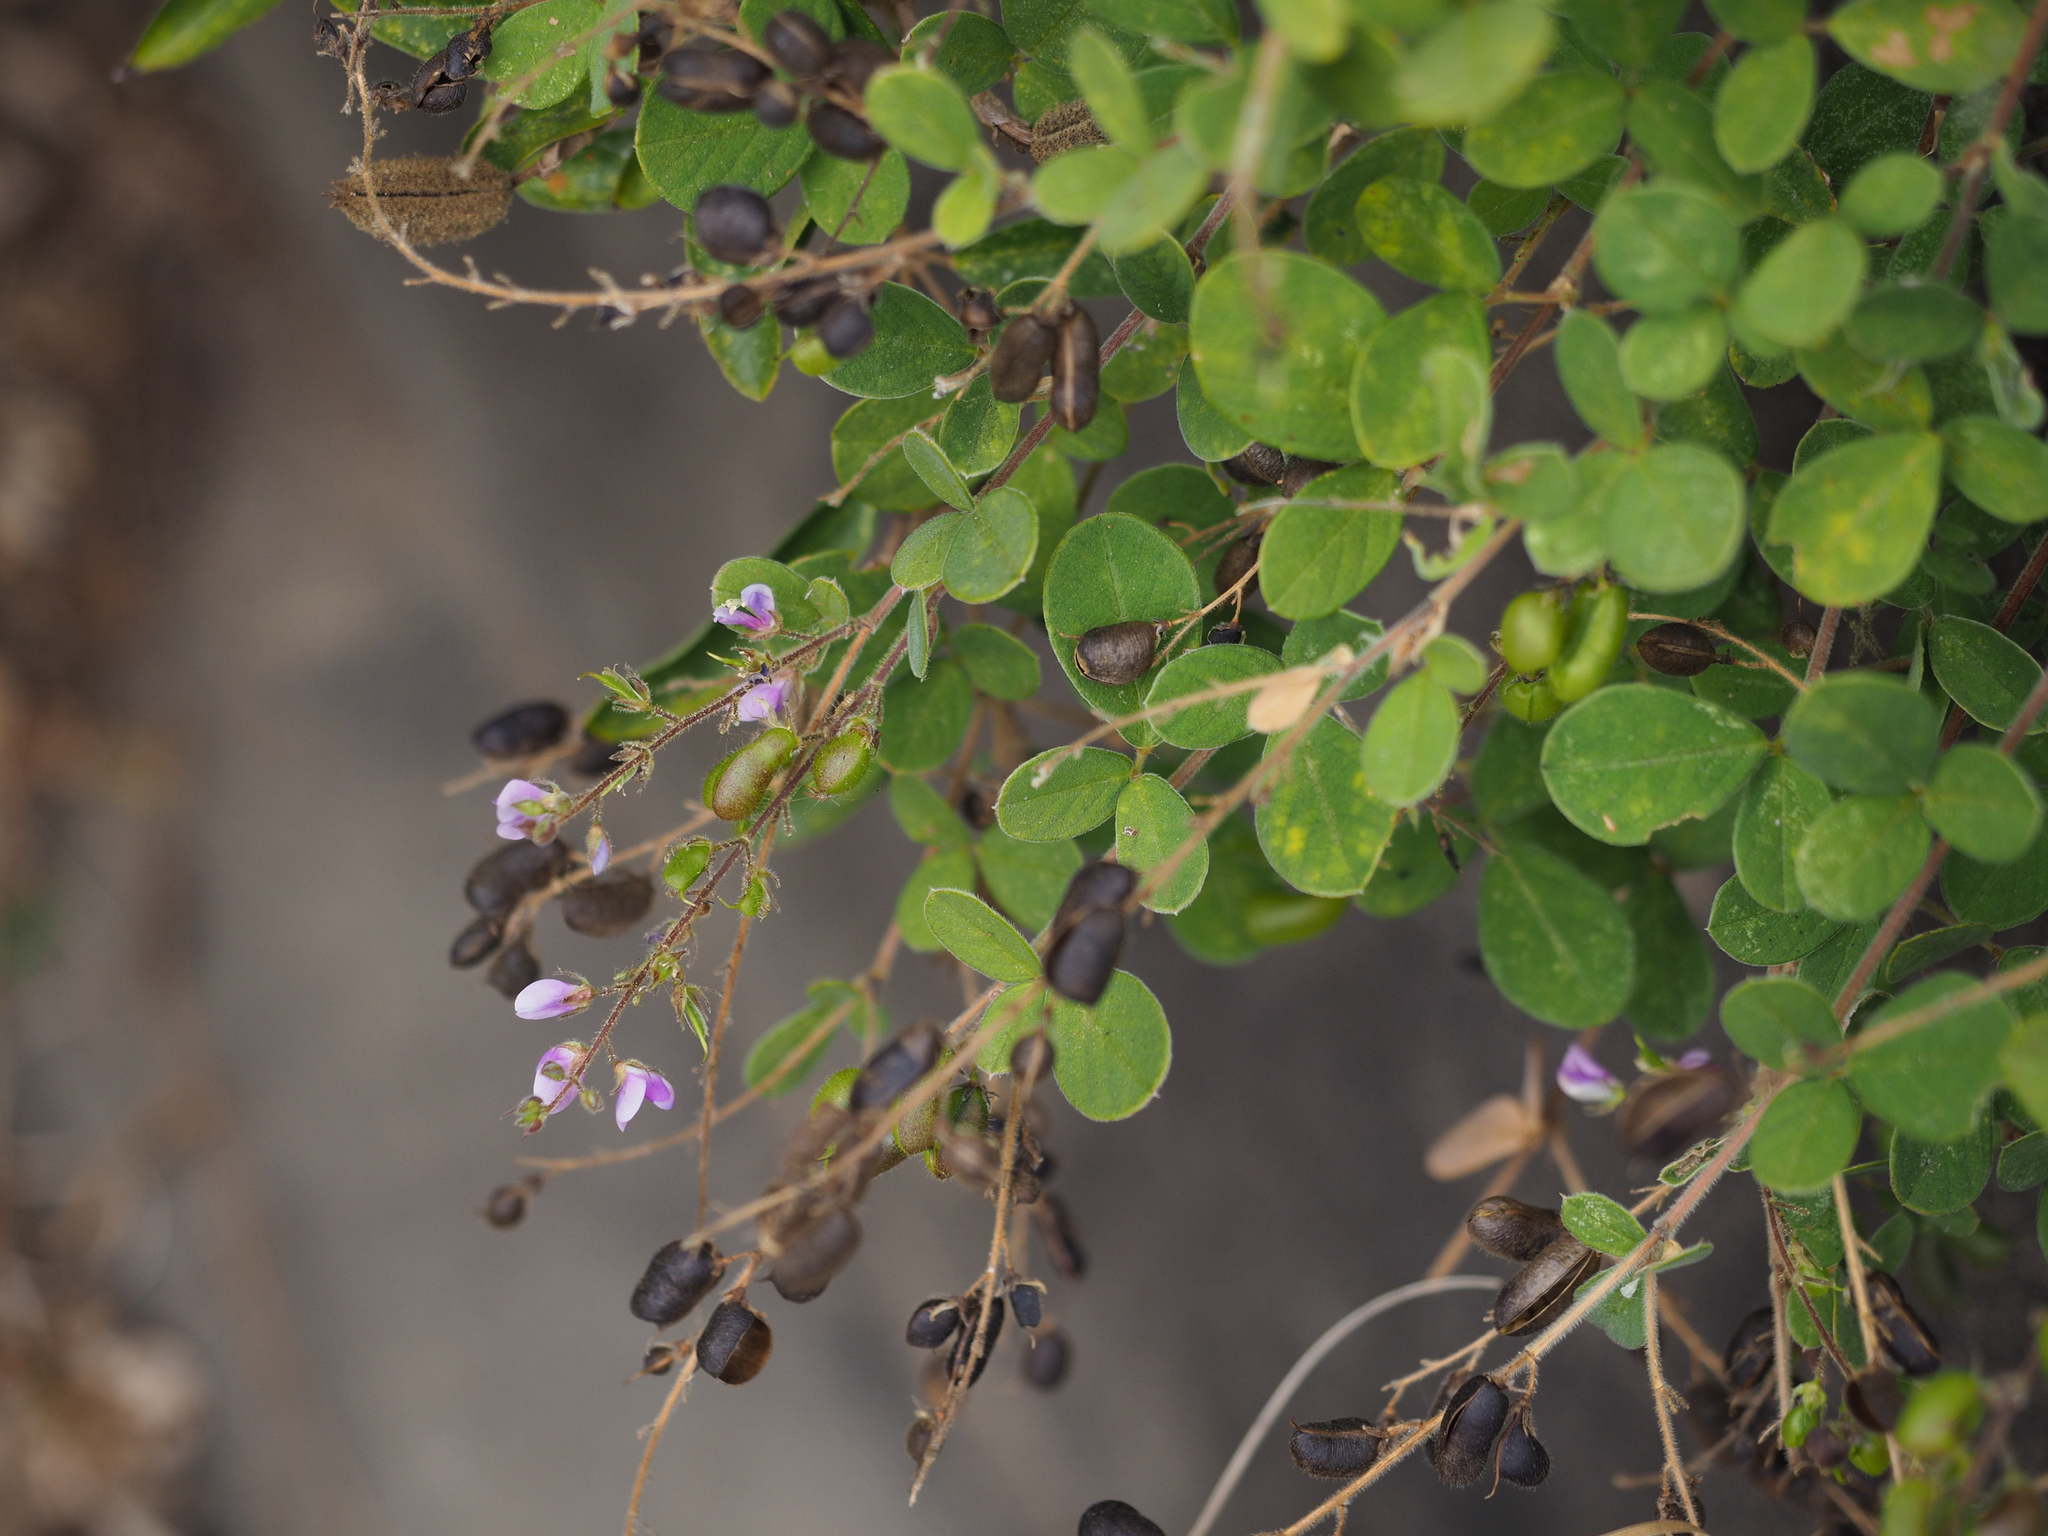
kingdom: Plantae
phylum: Tracheophyta
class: Magnoliopsida
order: Fabales
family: Fabaceae
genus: Pycnospora
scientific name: Pycnospora lutescens
